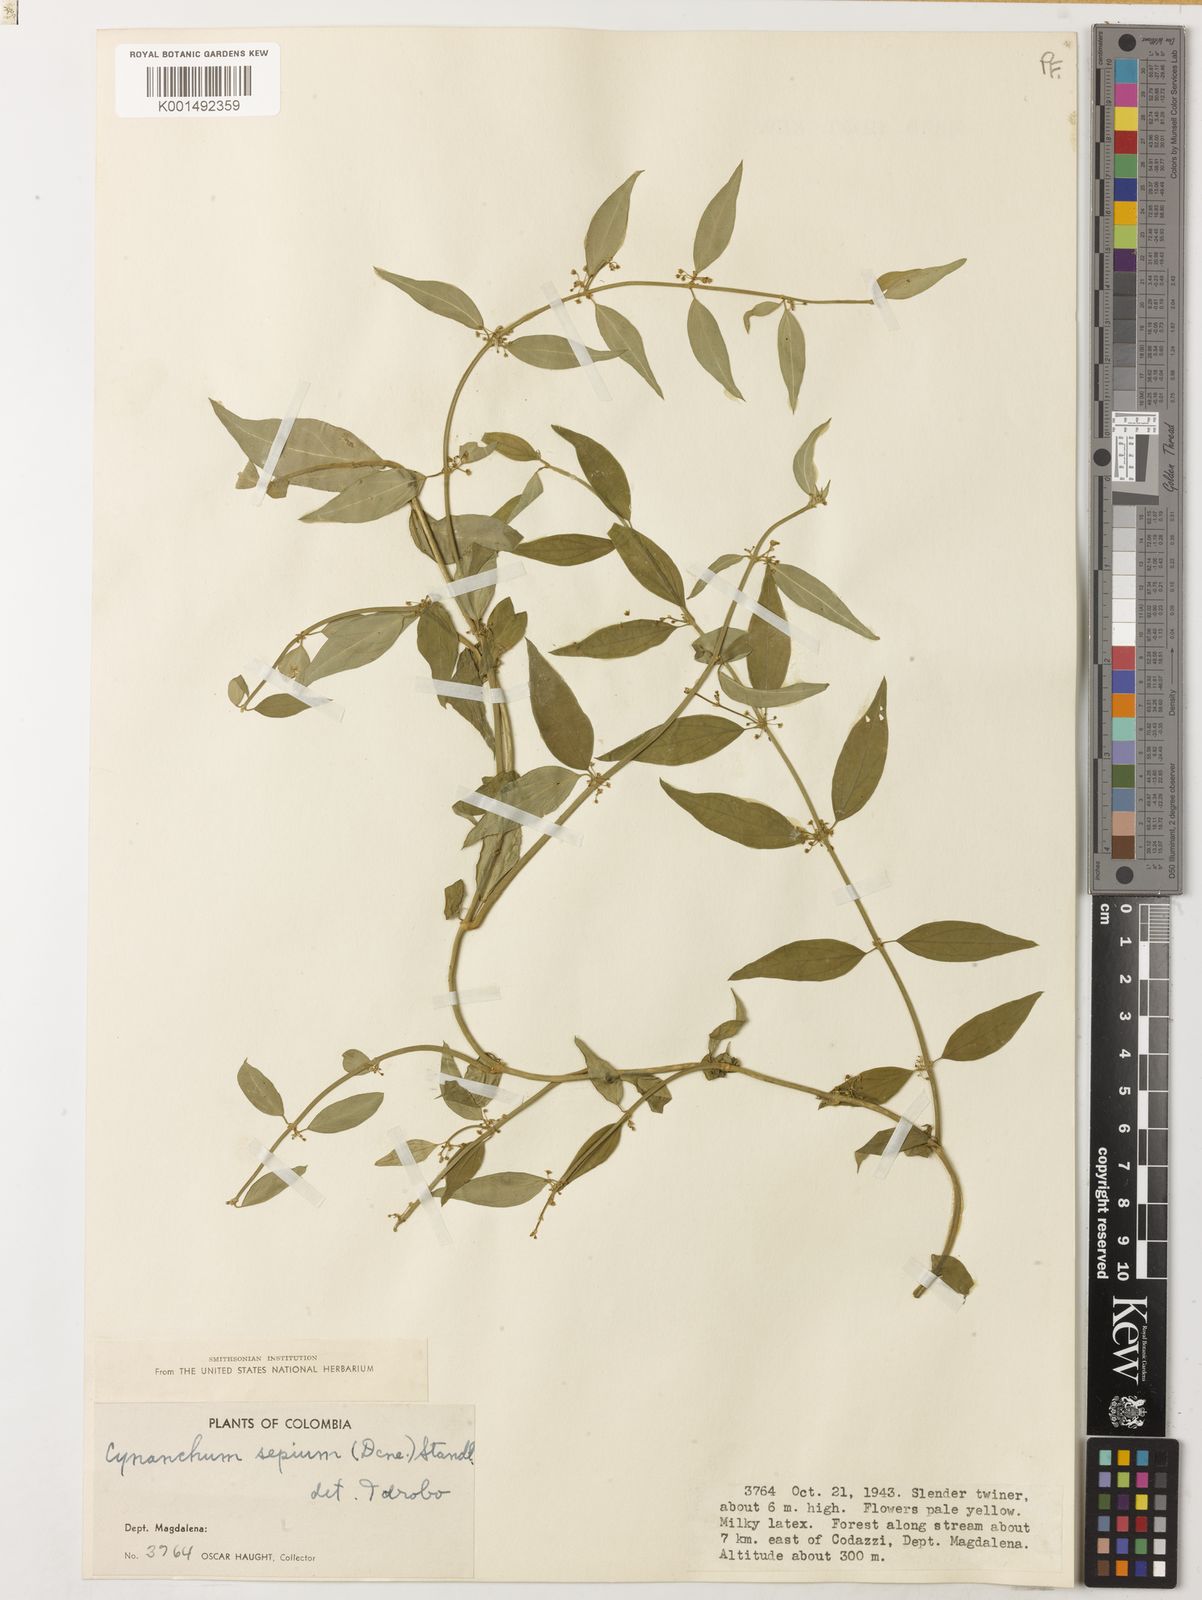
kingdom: Plantae
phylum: Tracheophyta
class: Magnoliopsida
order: Gentianales
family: Apocynaceae
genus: Orthosia
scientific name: Orthosia guilleminiana
